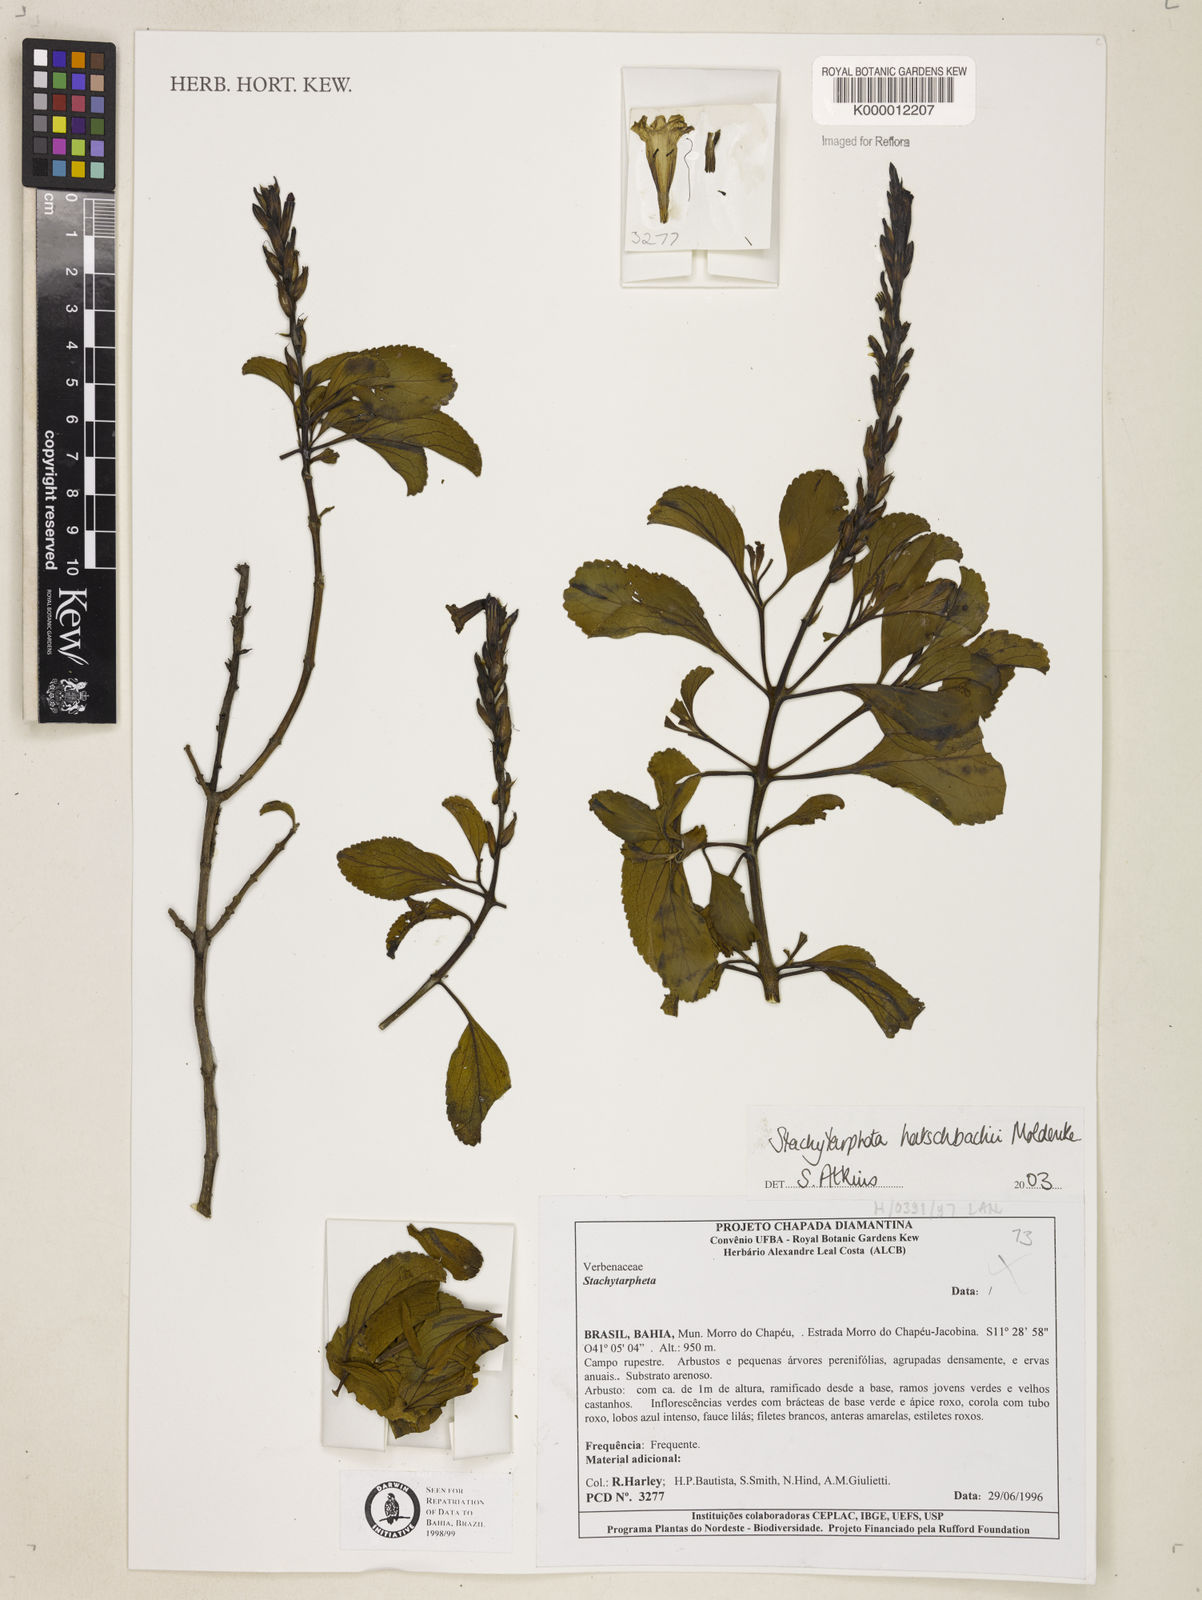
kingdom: Plantae
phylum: Tracheophyta
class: Magnoliopsida
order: Lamiales
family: Verbenaceae
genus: Stachytarpheta
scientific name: Stachytarpheta martiana
